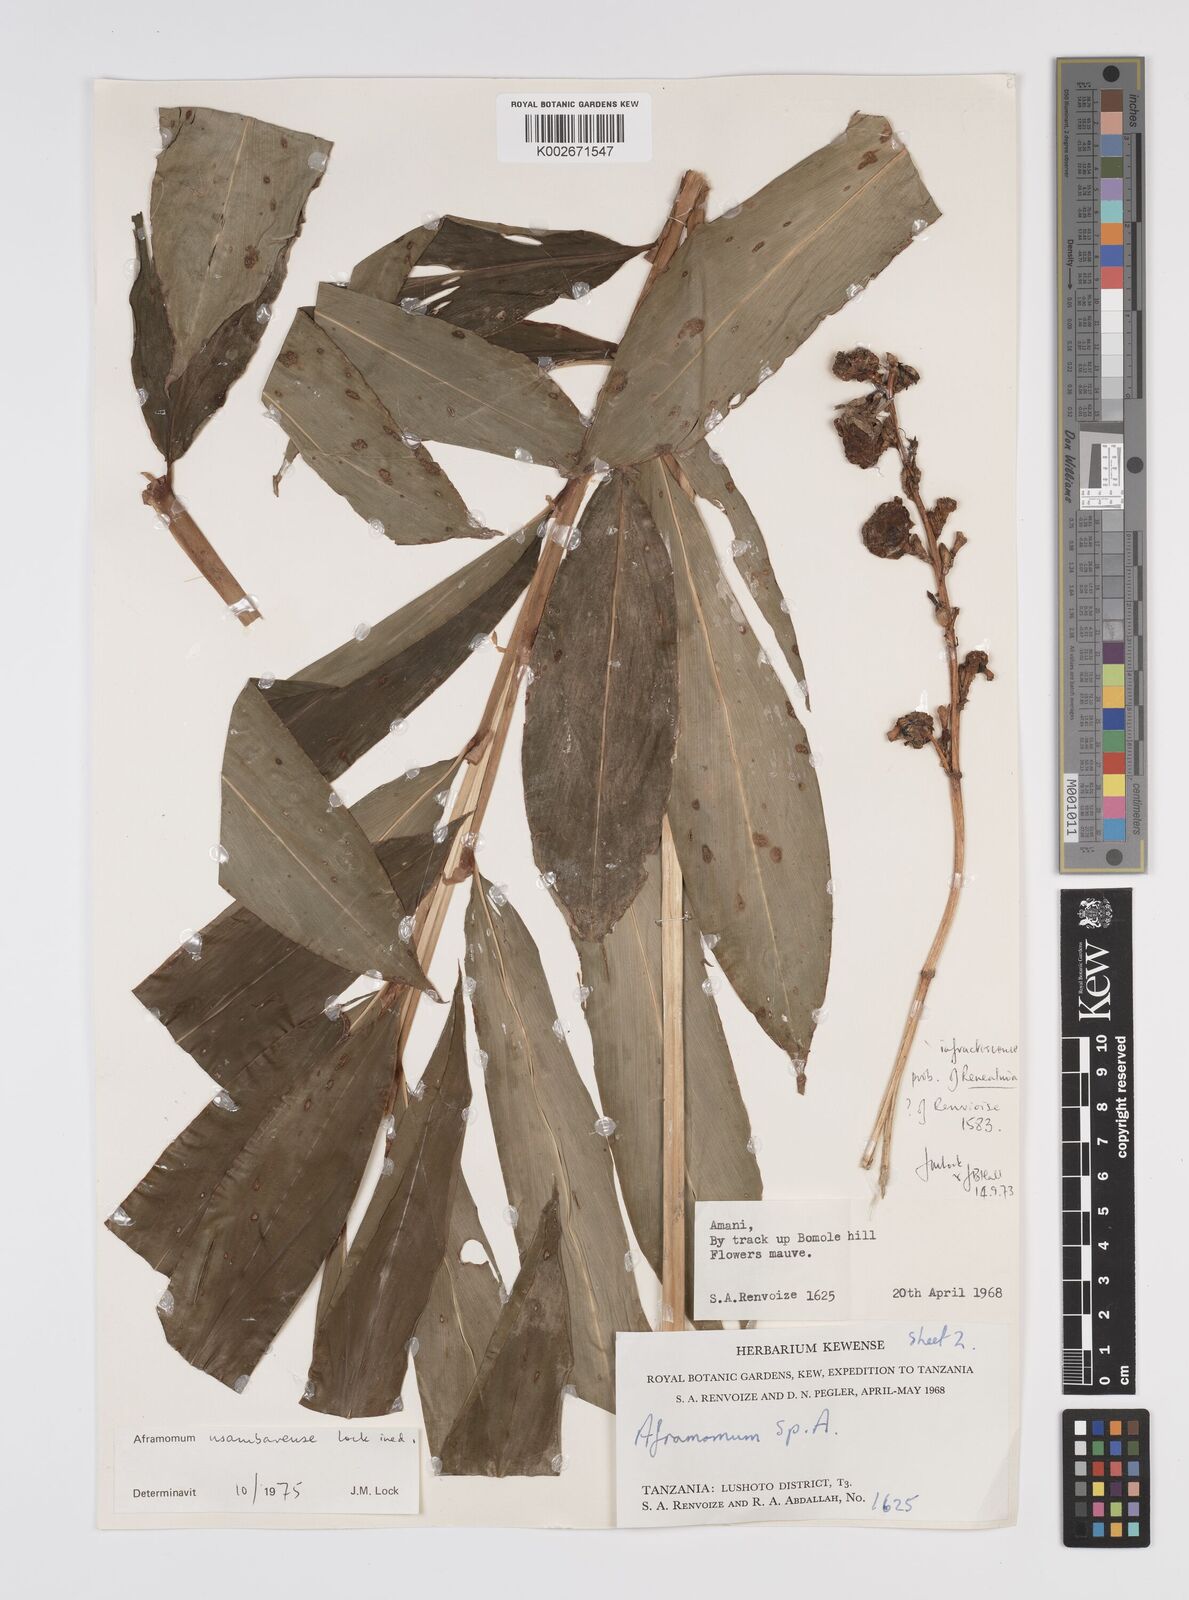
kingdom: Plantae
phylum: Tracheophyta
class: Liliopsida
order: Zingiberales
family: Zingiberaceae
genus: Aframomum
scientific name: Aframomum corrorima
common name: Ethiopian cardamom
